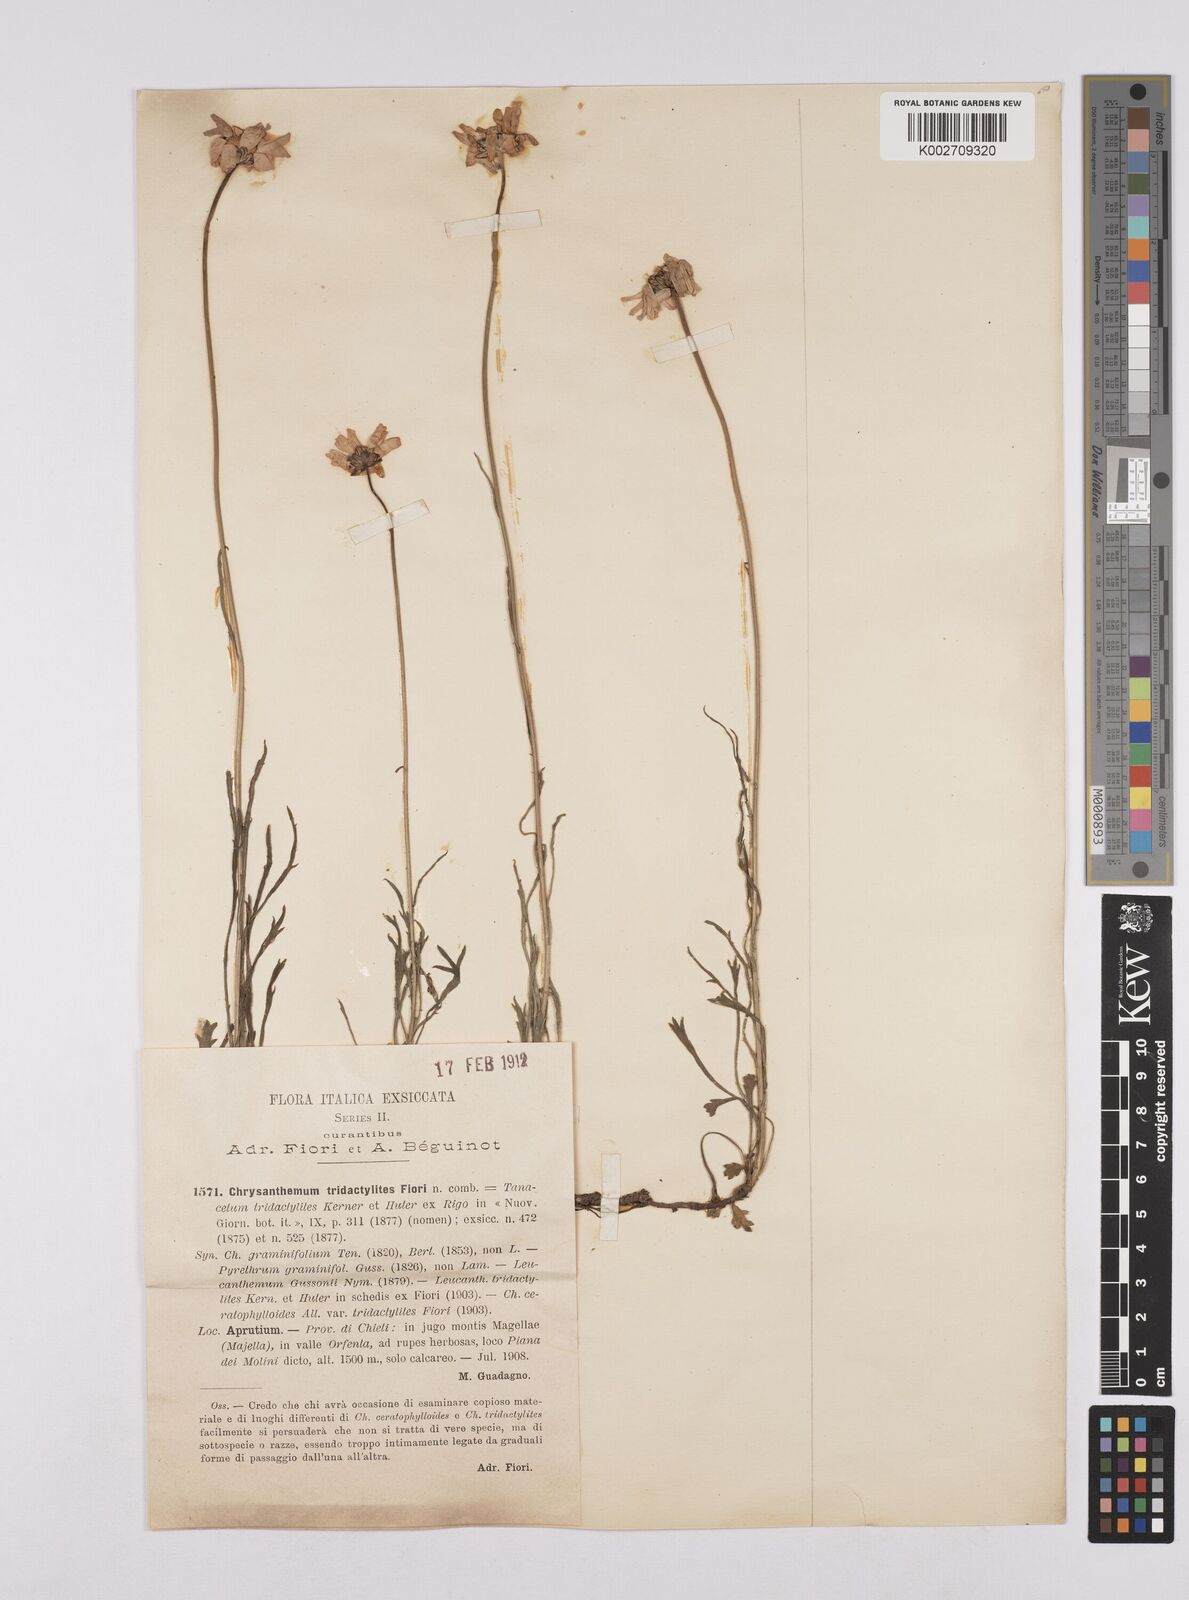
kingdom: Plantae
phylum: Tracheophyta
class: Magnoliopsida
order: Asterales
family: Asteraceae
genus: Leucanthemum
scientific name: Leucanthemum chloroticum
